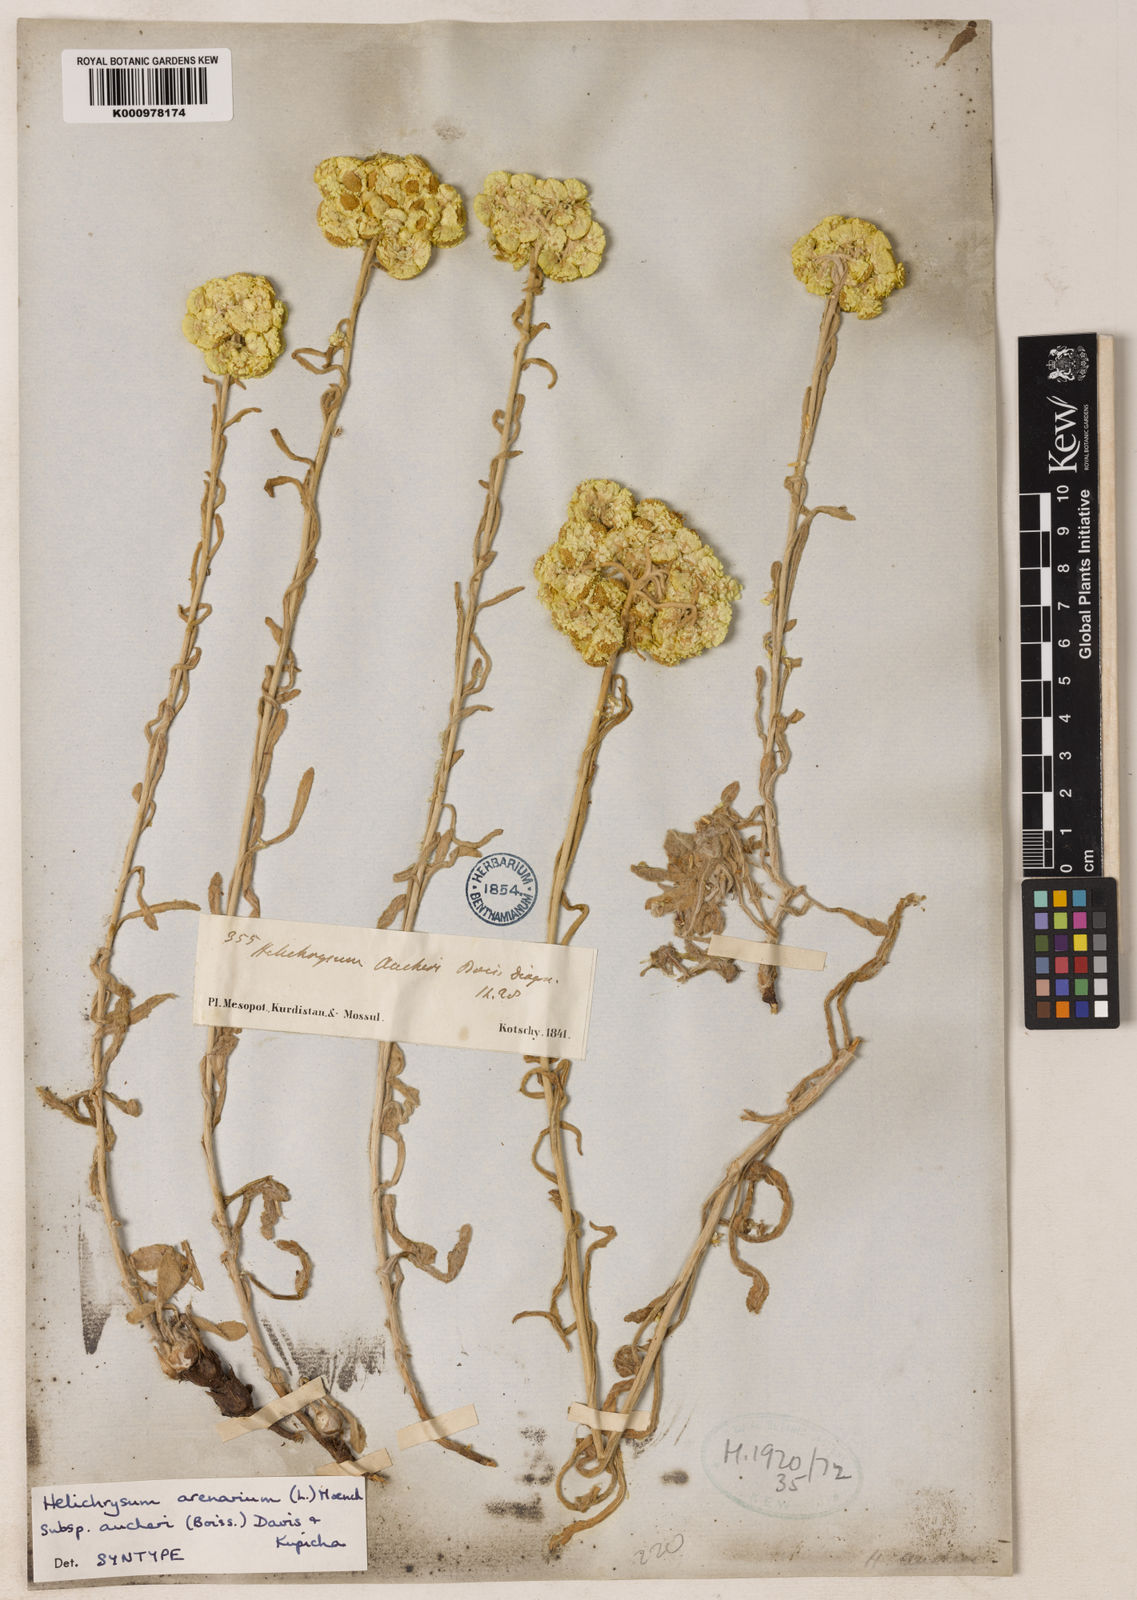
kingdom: Plantae
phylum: Tracheophyta
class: Magnoliopsida
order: Asterales
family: Asteraceae
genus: Helichrysum
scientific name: Helichrysum
